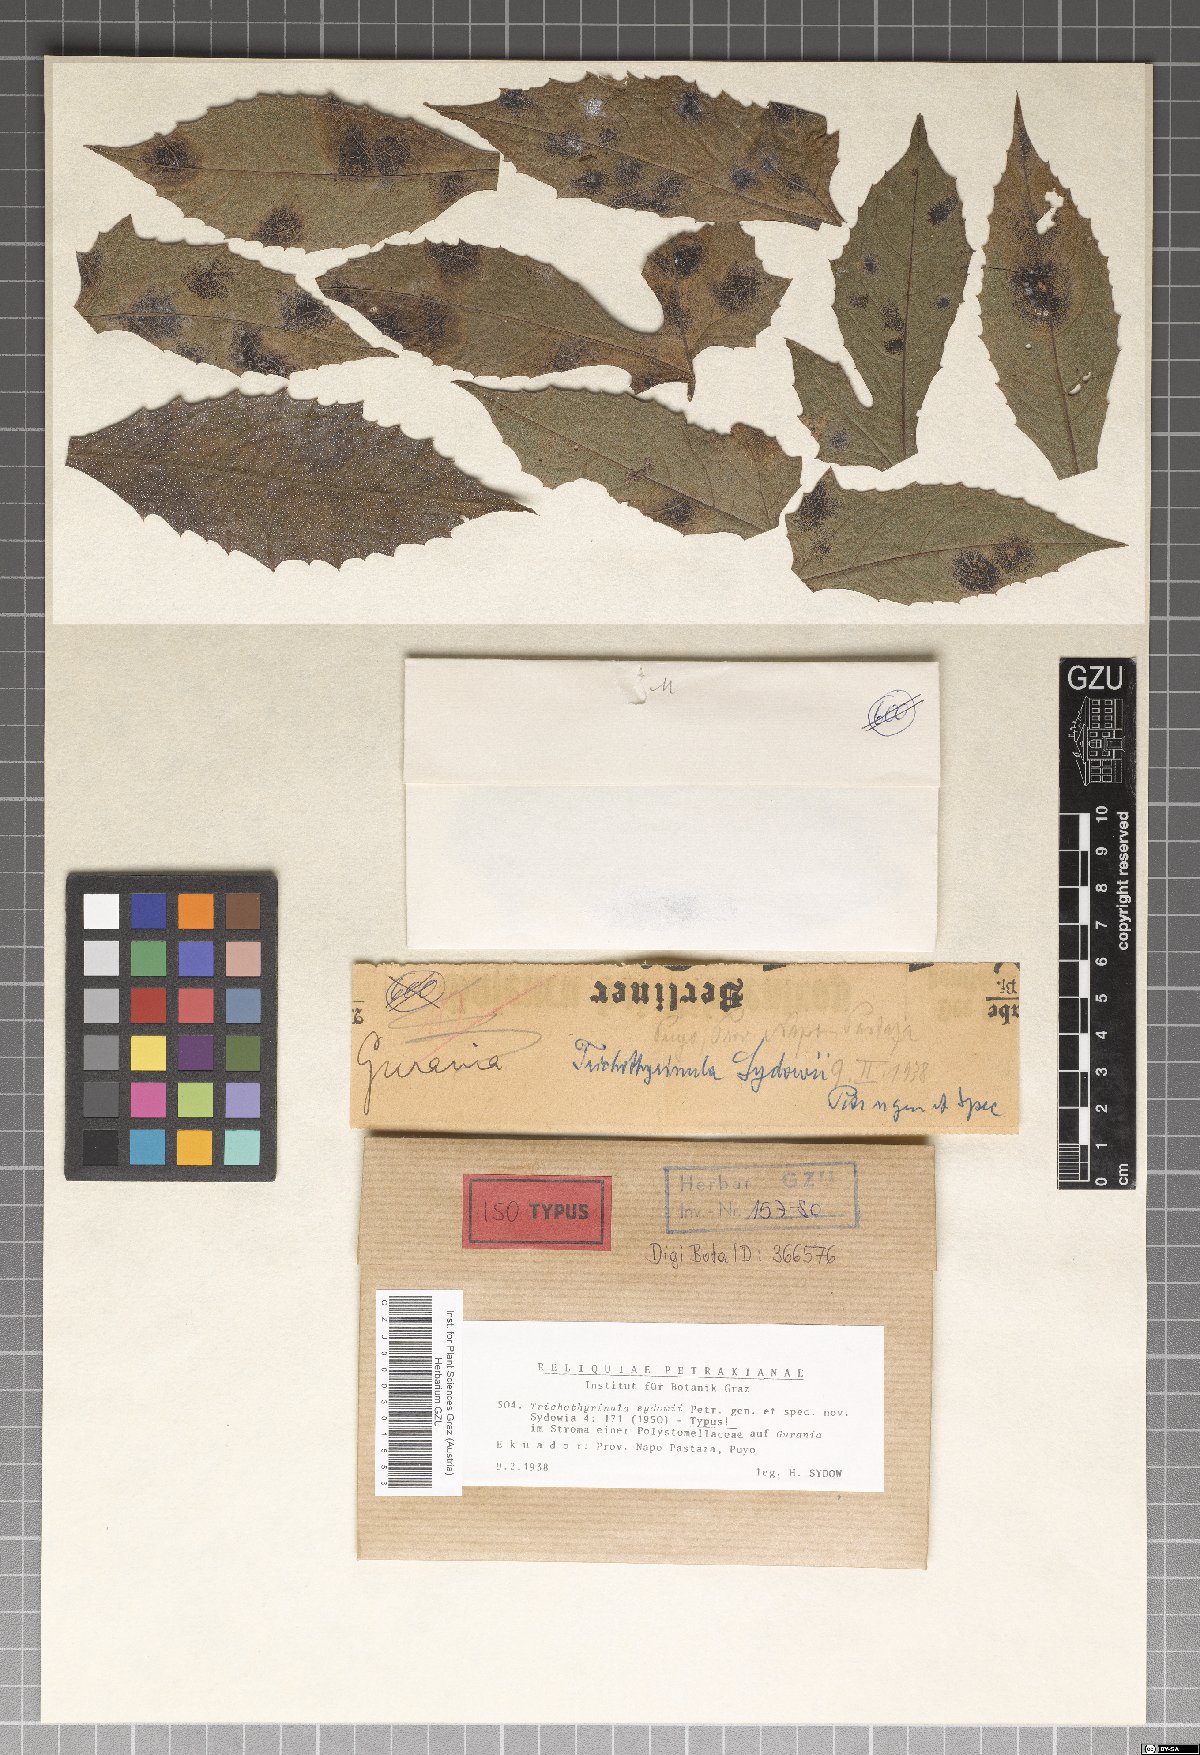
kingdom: Fungi
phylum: Ascomycota
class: Dothideomycetes
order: Microthyriales
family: Microthyriaceae
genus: Trichothyrinula
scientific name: Trichothyrinula sydowii
